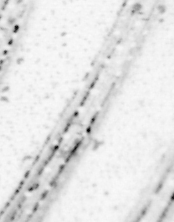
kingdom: Animalia
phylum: Chordata
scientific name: Chordata
